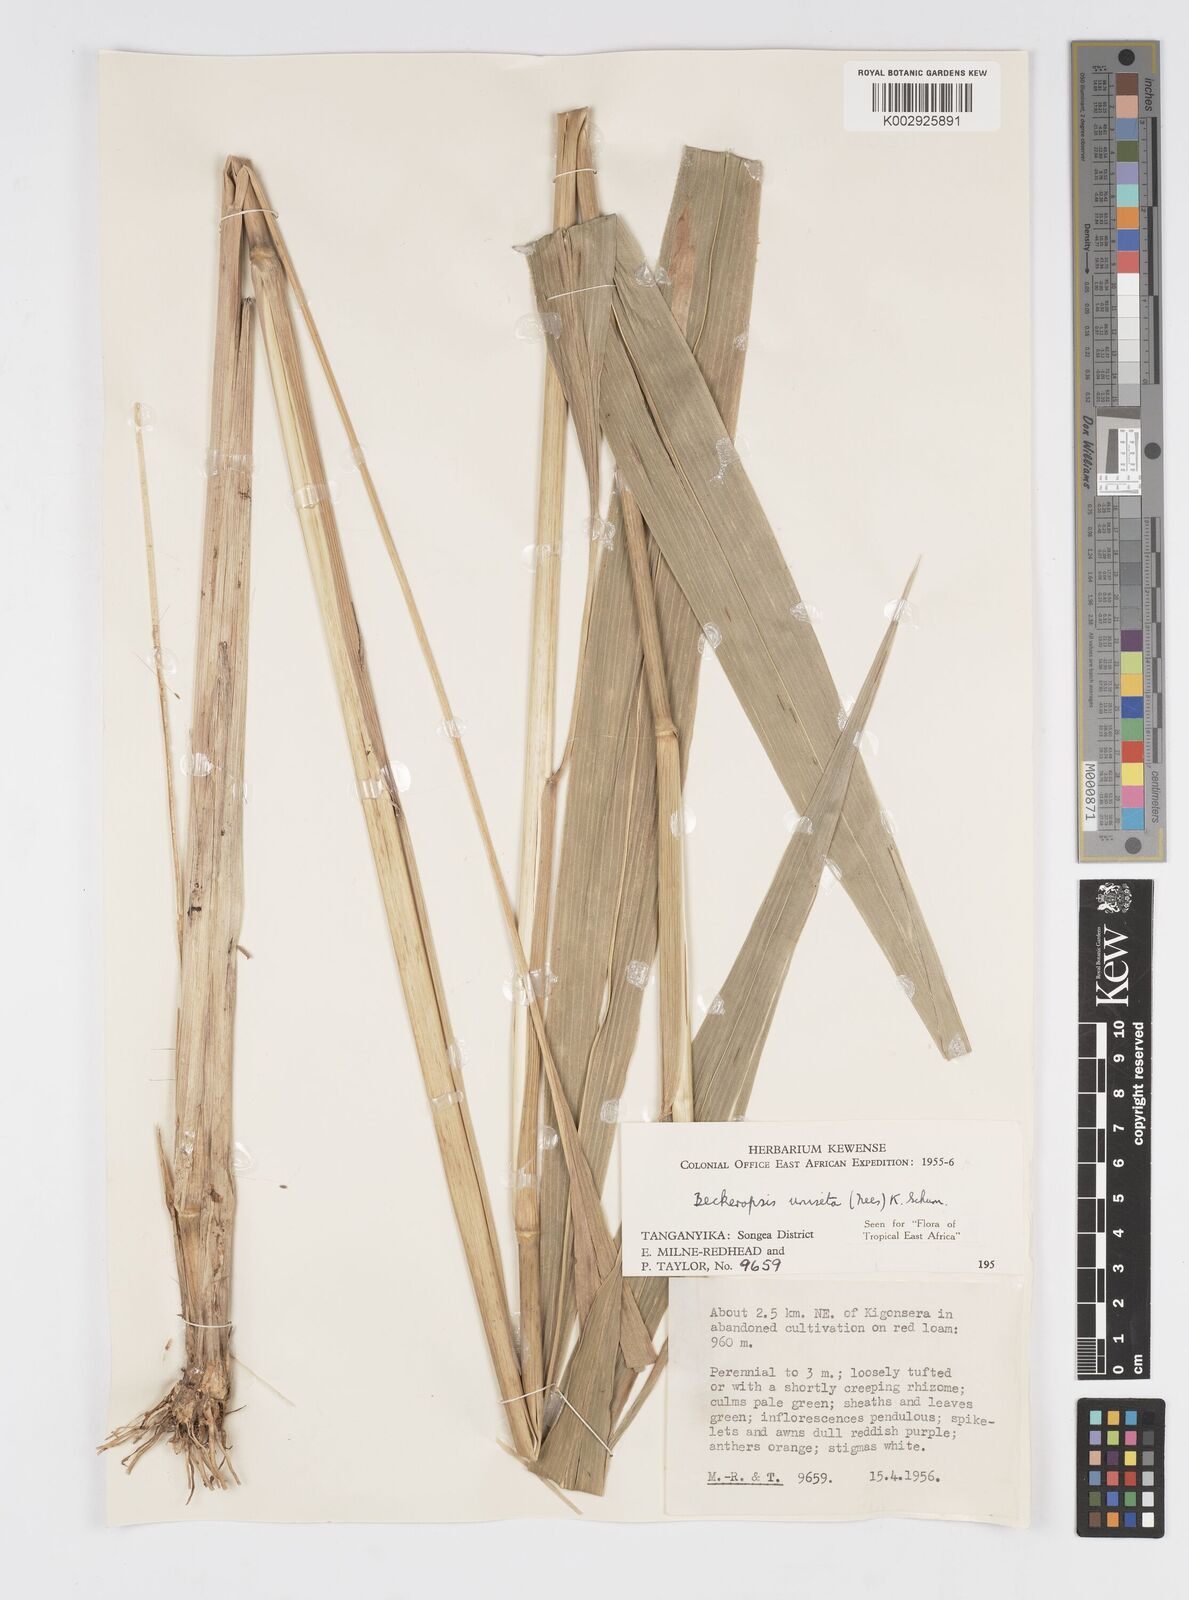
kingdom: Plantae
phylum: Tracheophyta
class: Liliopsida
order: Poales
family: Poaceae
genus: Cenchrus
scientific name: Cenchrus Pennisetum spec
